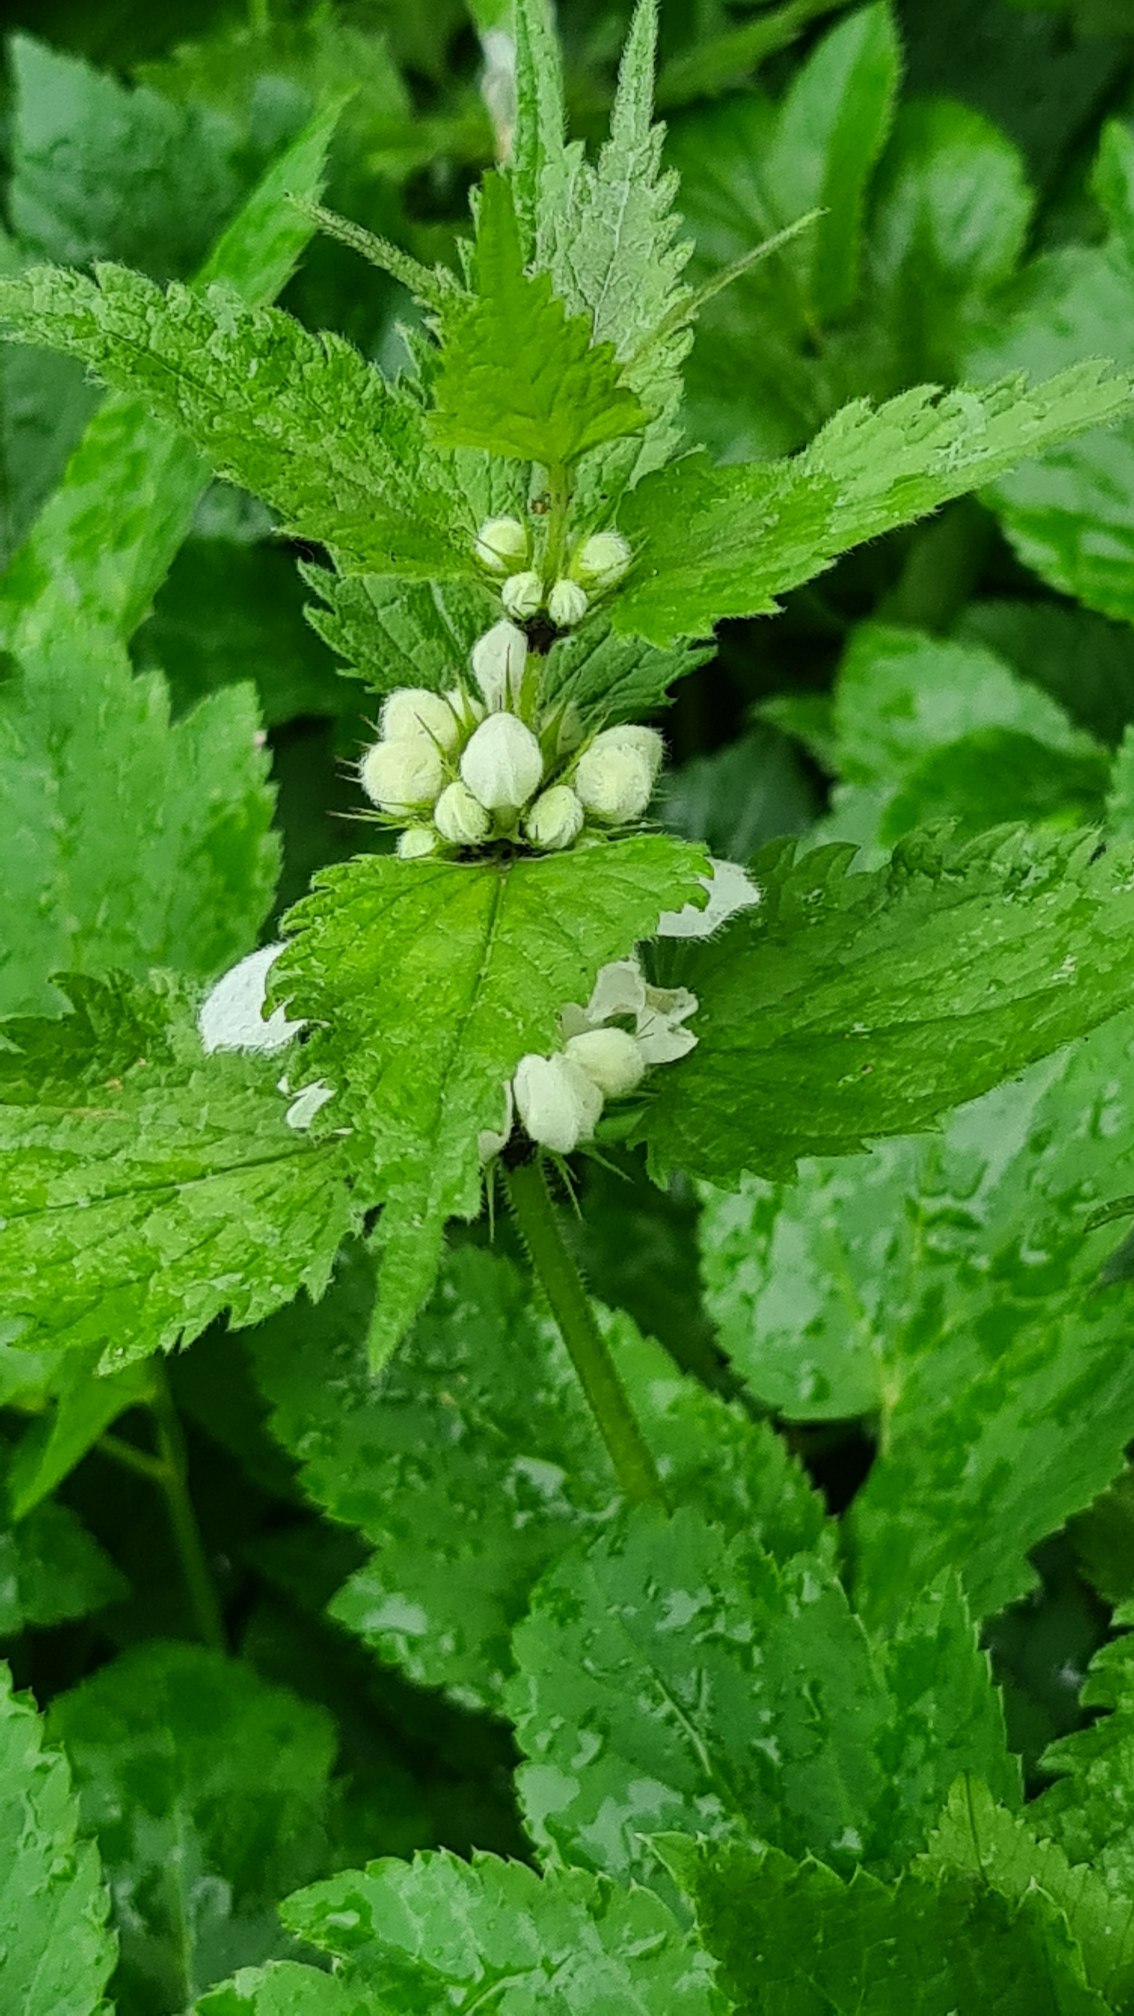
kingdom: Plantae
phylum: Tracheophyta
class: Magnoliopsida
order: Lamiales
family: Lamiaceae
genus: Lamium
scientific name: Lamium album
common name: Døvnælde
